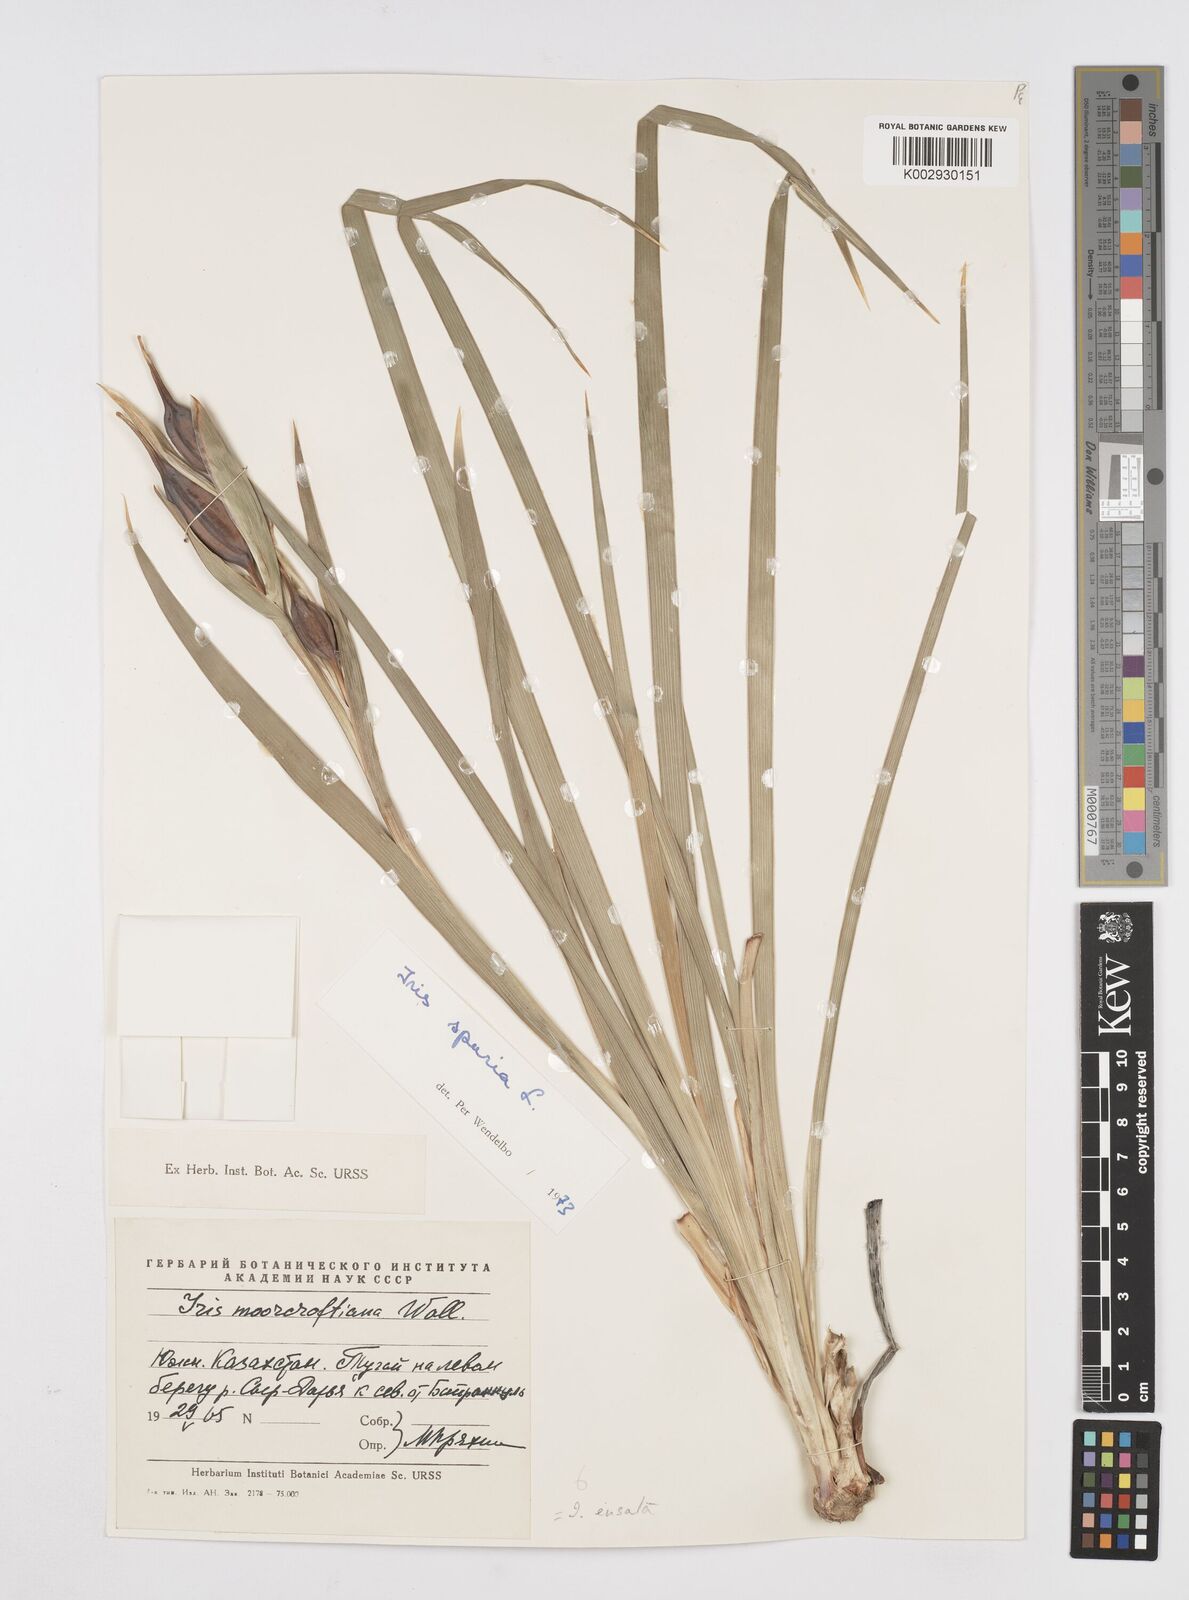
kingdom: Plantae
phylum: Tracheophyta
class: Liliopsida
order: Asparagales
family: Iridaceae
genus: Iris
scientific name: Iris spuria
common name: Blue iris
